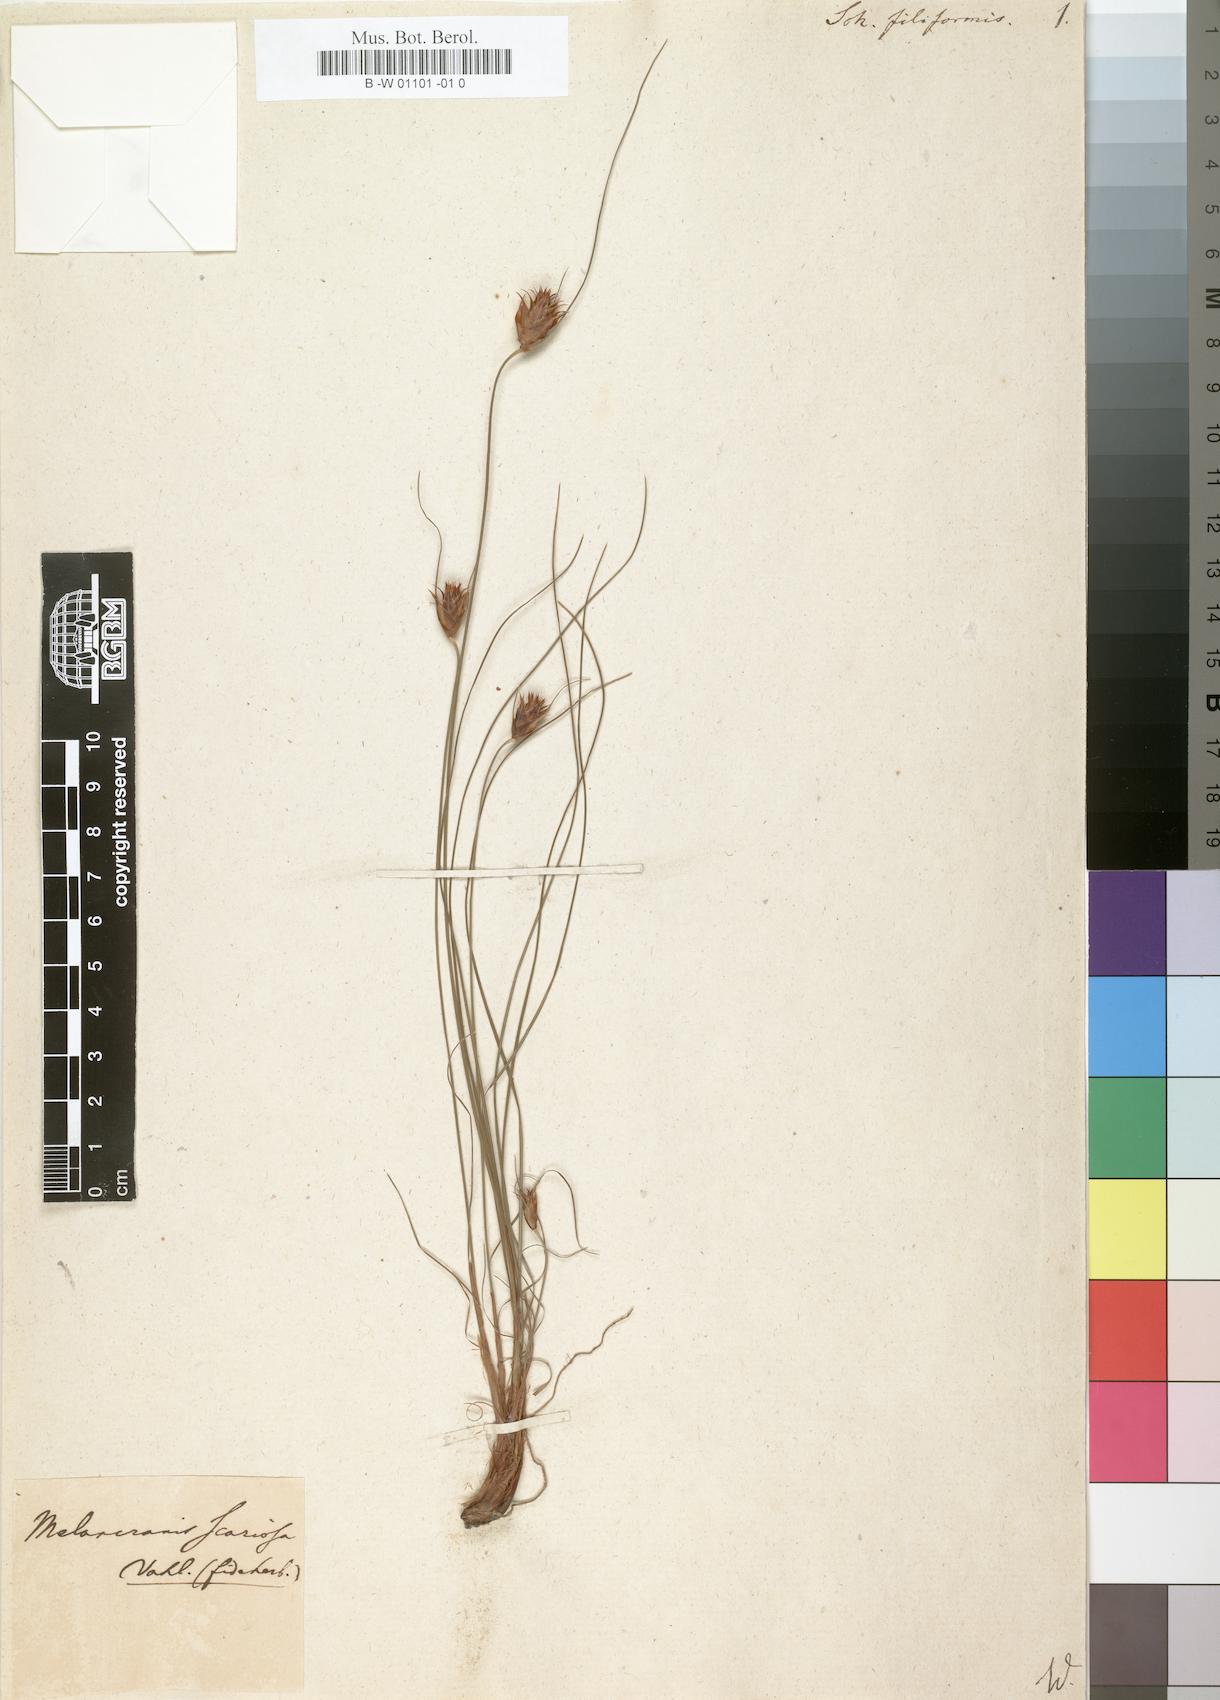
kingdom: Plantae
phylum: Tracheophyta
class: Liliopsida
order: Poales
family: Cyperaceae
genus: Ficinia
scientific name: Ficinia
